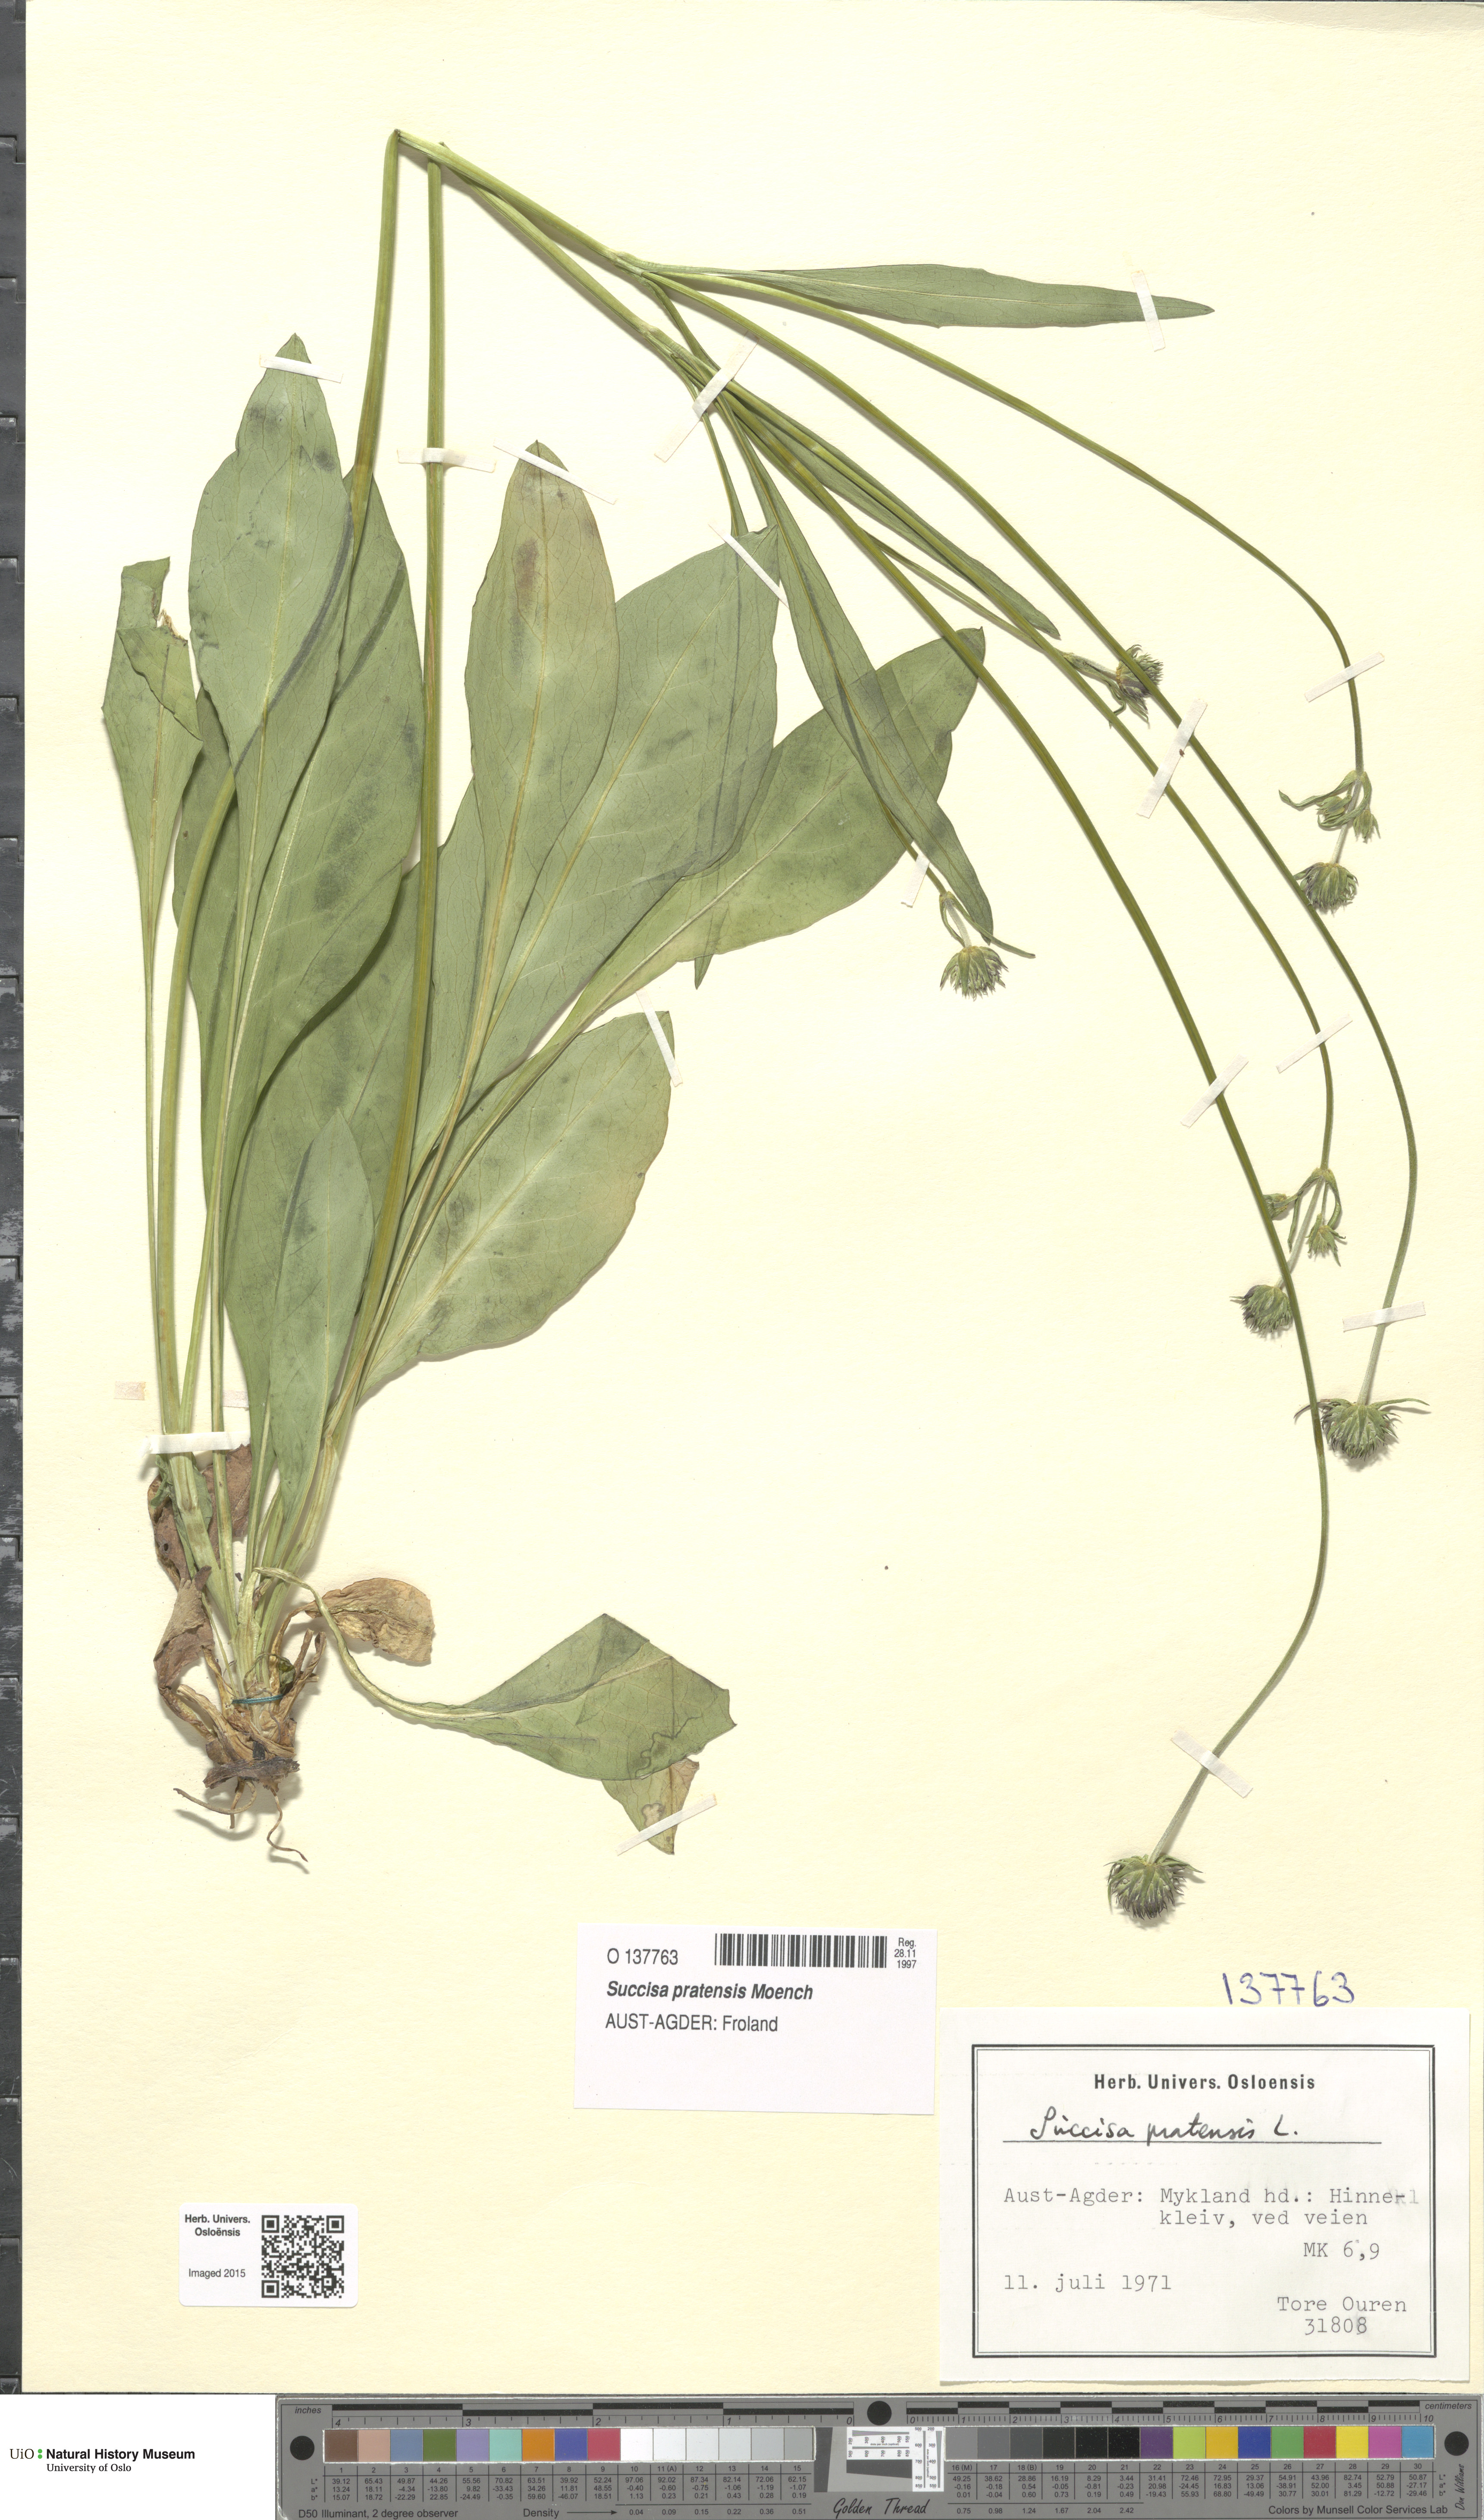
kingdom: Plantae
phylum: Tracheophyta
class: Magnoliopsida
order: Dipsacales
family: Caprifoliaceae
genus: Succisa
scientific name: Succisa pratensis
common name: Devil's-bit
